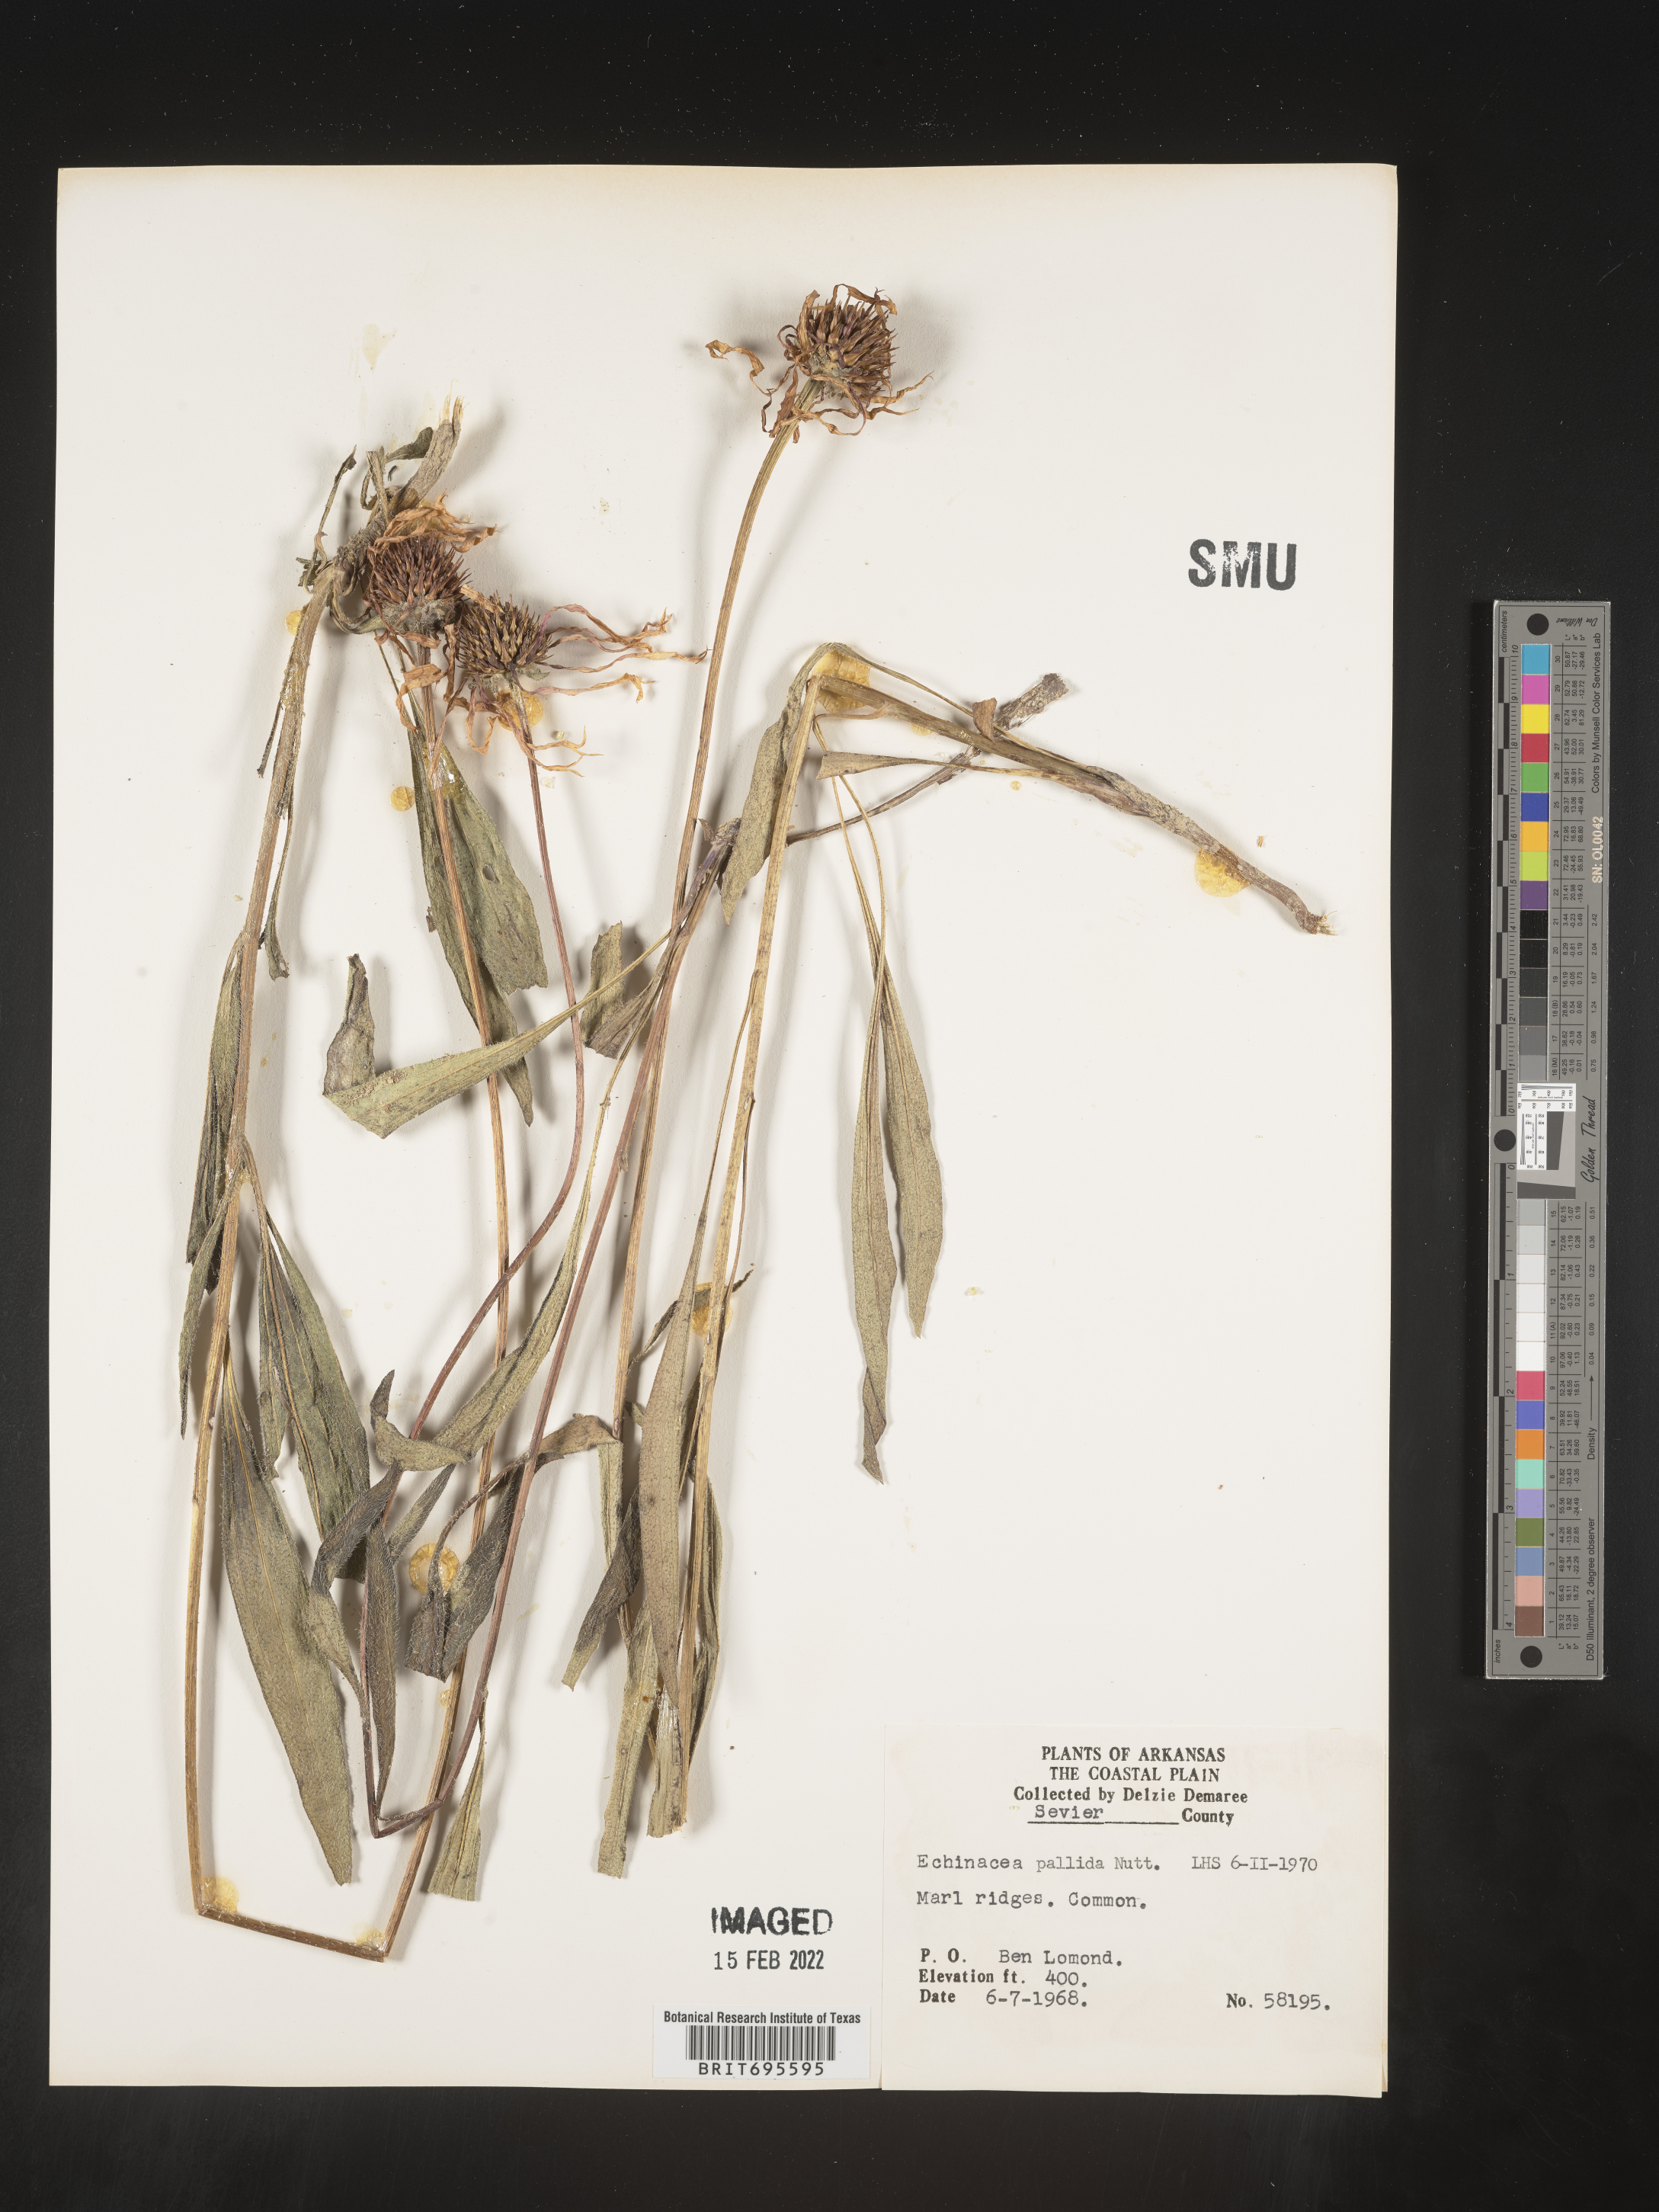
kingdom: Plantae
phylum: Tracheophyta
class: Magnoliopsida
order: Asterales
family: Asteraceae
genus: Echinacea
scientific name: Echinacea pallida
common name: Pale echinacea
